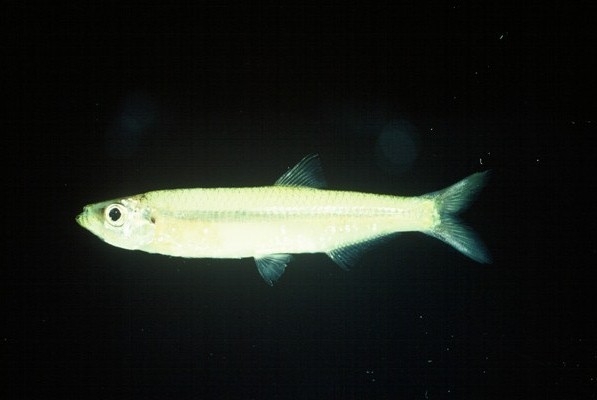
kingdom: Animalia
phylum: Chordata
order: Clupeiformes
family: Clupeidae
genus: Gilchristella
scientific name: Gilchristella aestuaria
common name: Estuarine round-herring
